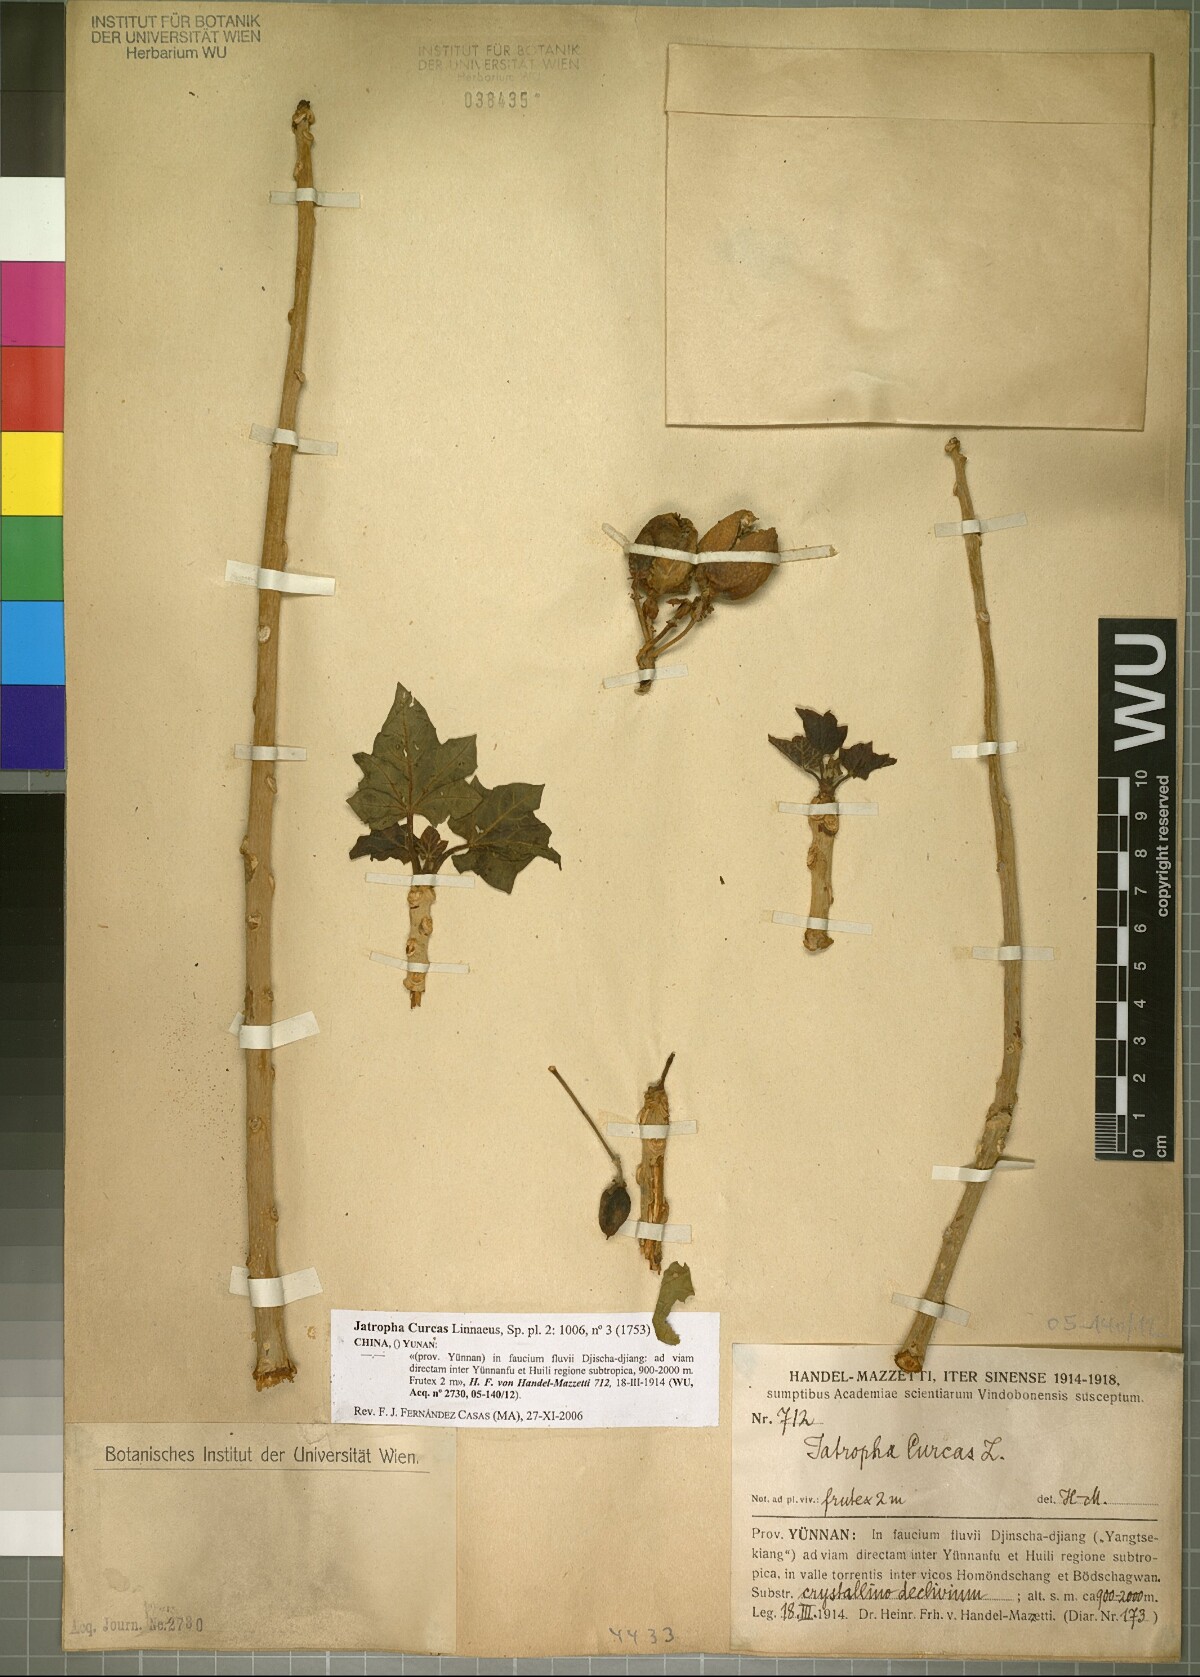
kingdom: Plantae
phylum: Tracheophyta
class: Magnoliopsida
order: Malpighiales
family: Euphorbiaceae
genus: Jatropha
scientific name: Jatropha curcas
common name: Barbados nut
